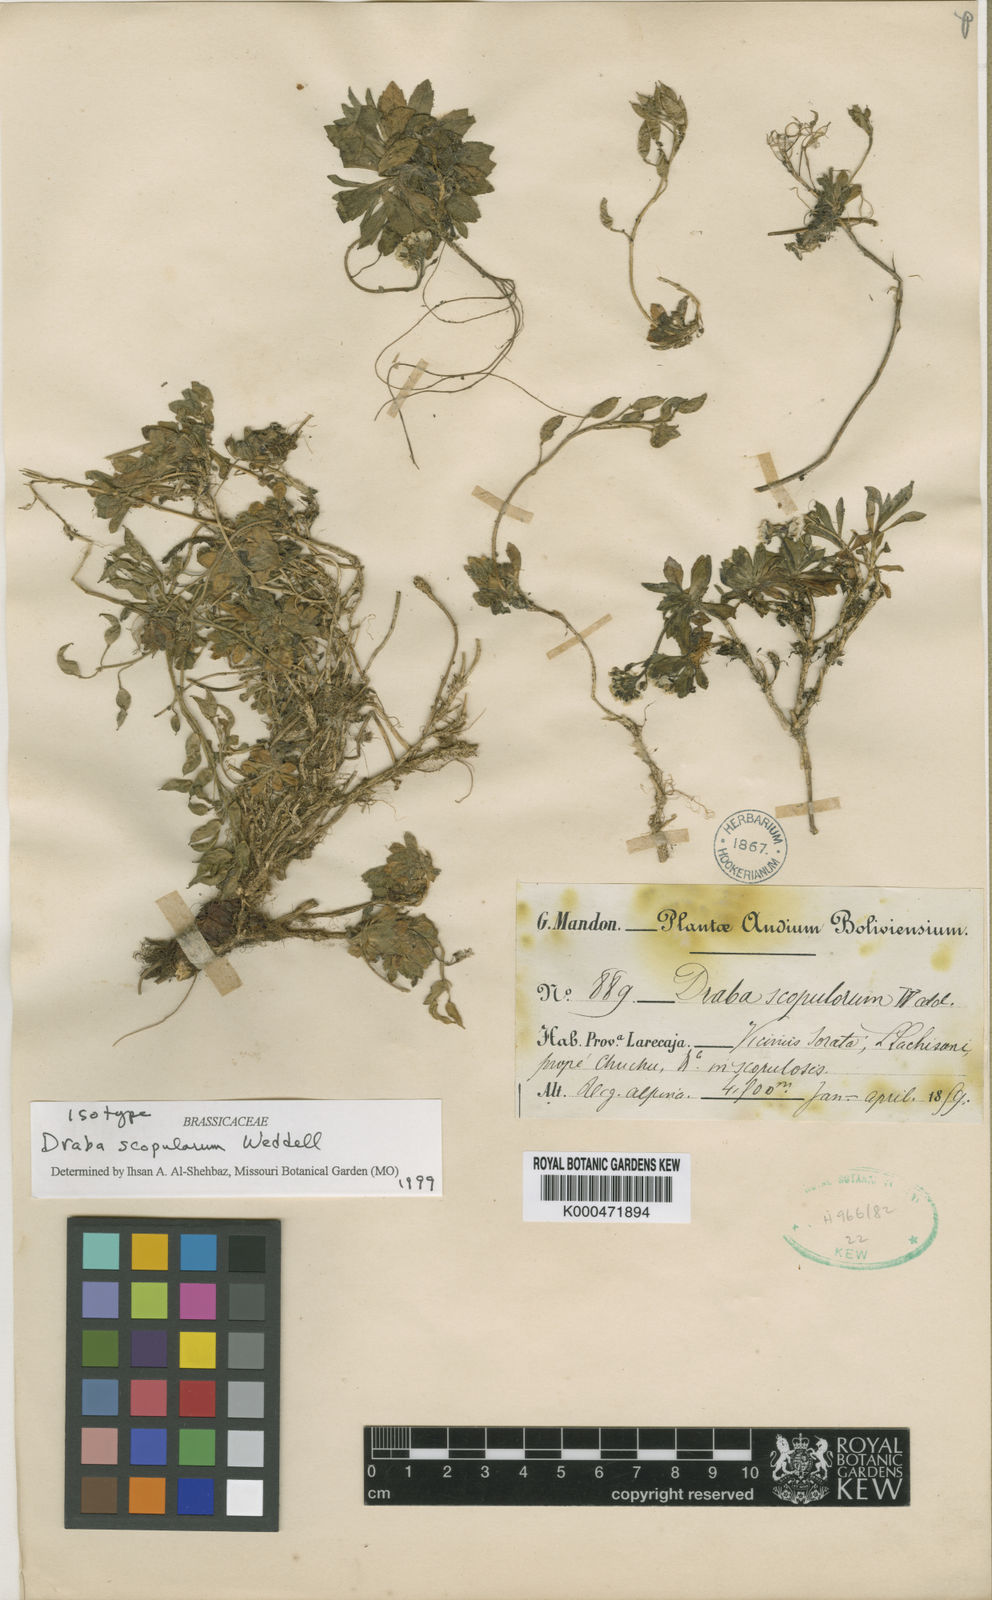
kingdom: Plantae
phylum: Tracheophyta
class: Magnoliopsida
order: Brassicales
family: Brassicaceae
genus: Draba
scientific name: Draba scopulorum
